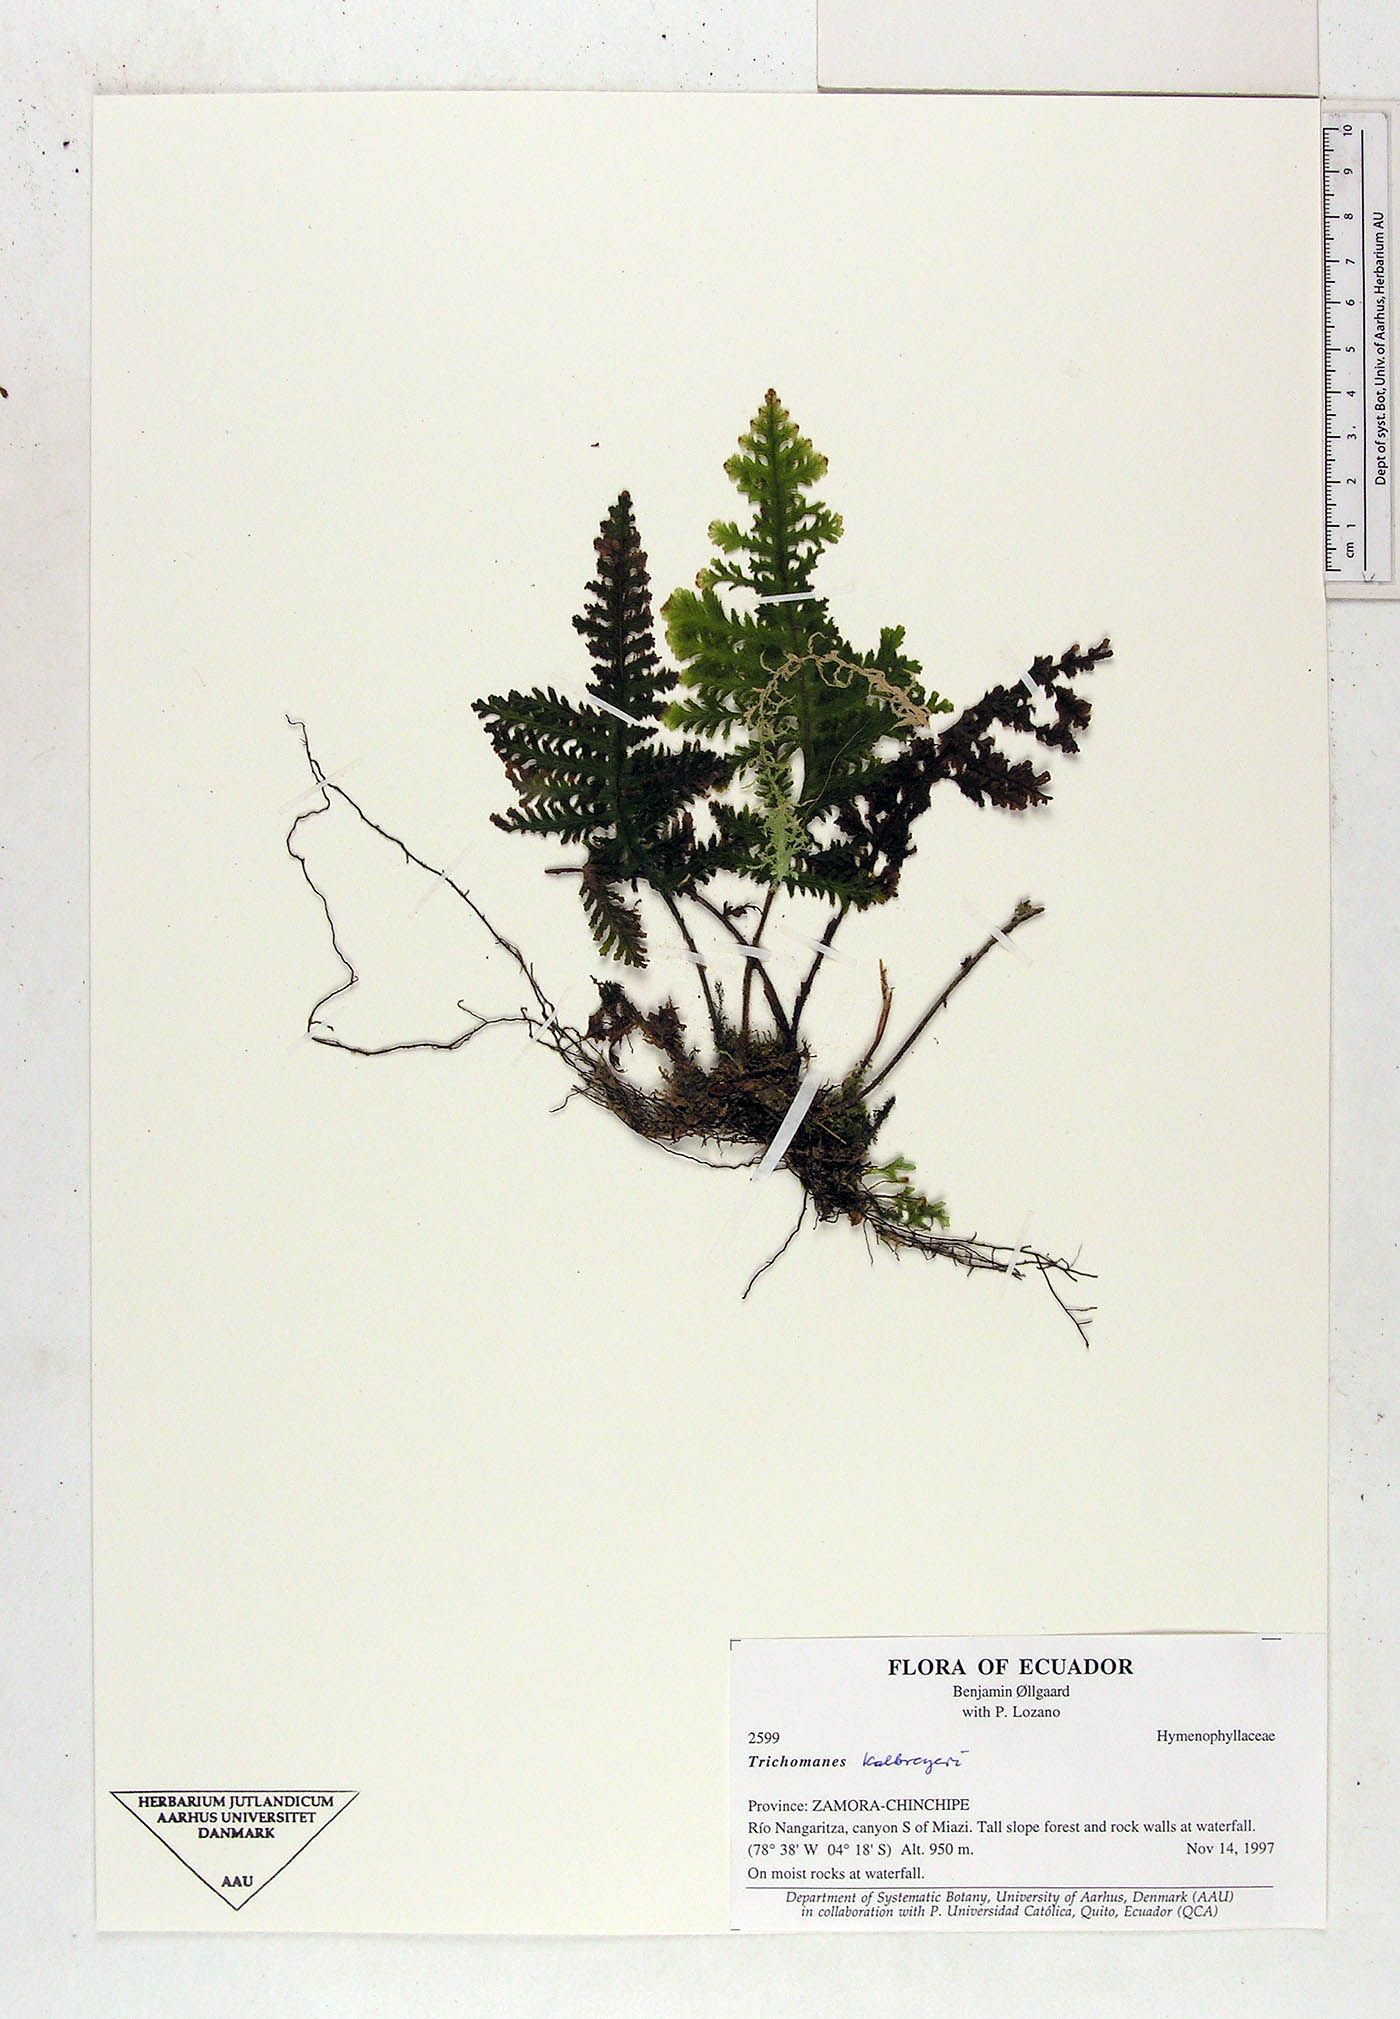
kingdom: Plantae
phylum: Tracheophyta
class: Polypodiopsida
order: Hymenophyllales
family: Hymenophyllaceae
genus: Trichomanes
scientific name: Trichomanes
